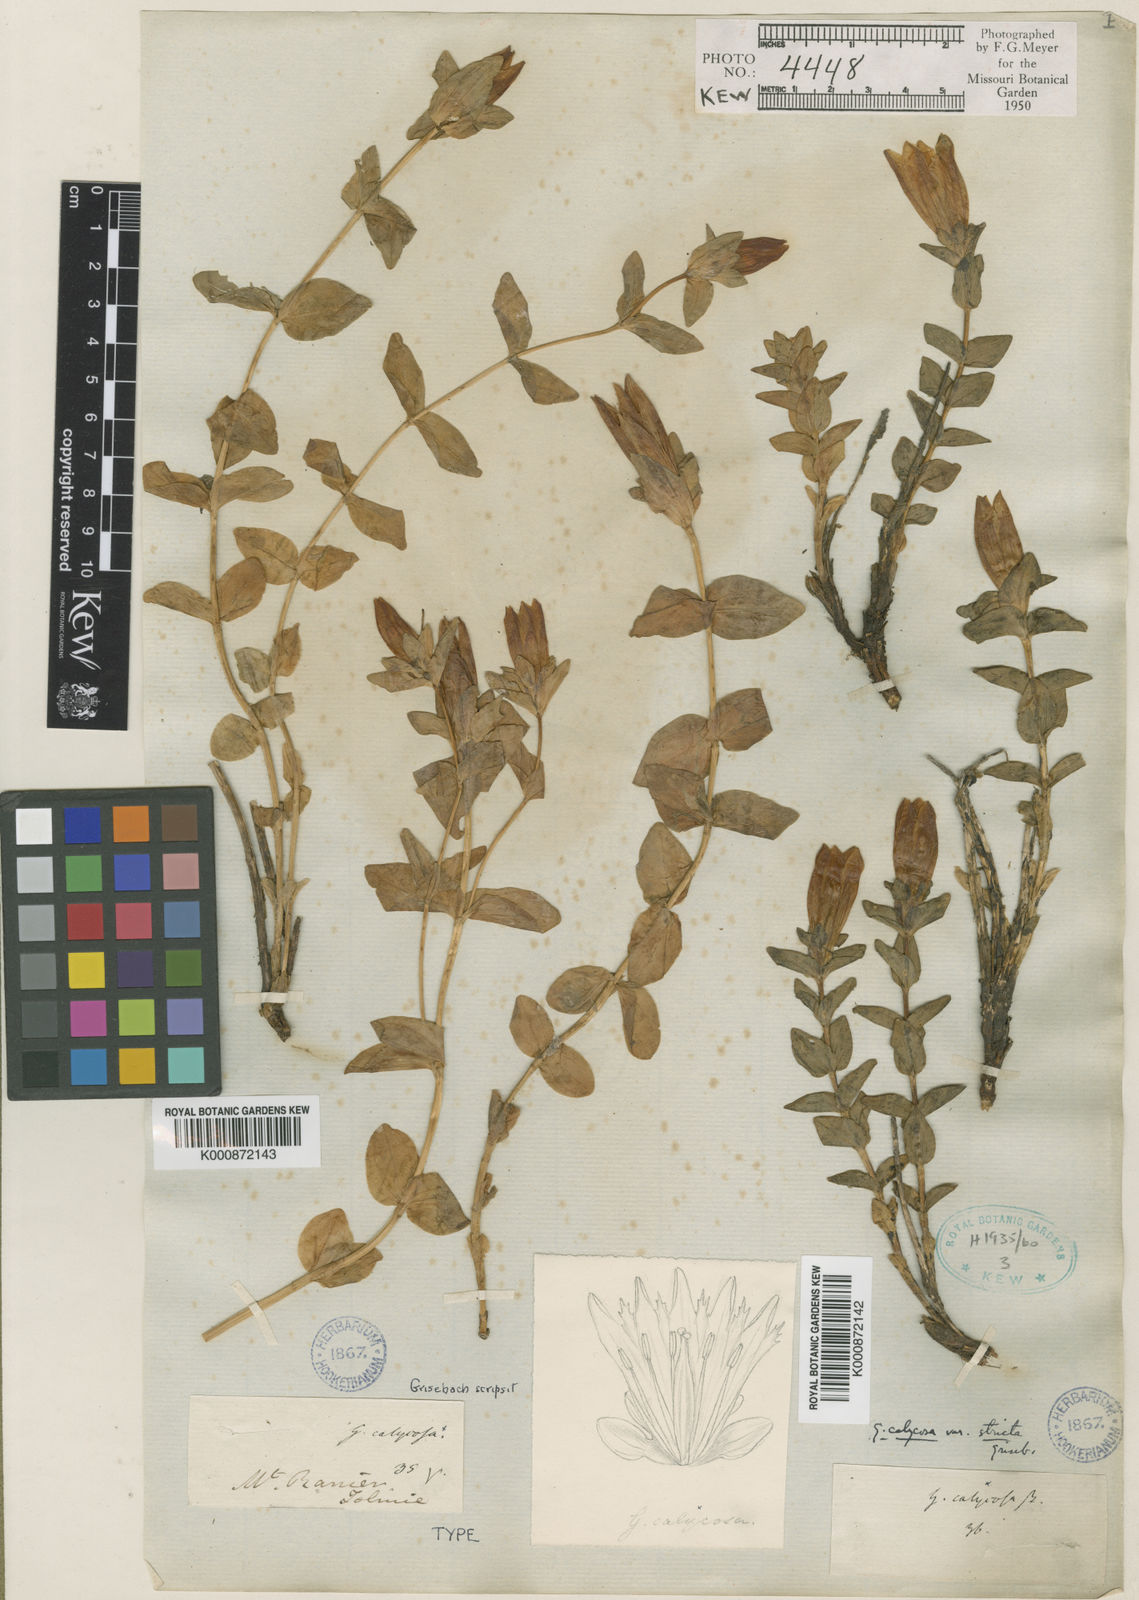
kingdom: Plantae
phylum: Tracheophyta
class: Magnoliopsida
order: Gentianales
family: Gentianaceae
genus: Gentiana
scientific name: Gentiana calycosa
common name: Rainier pleated gentian
